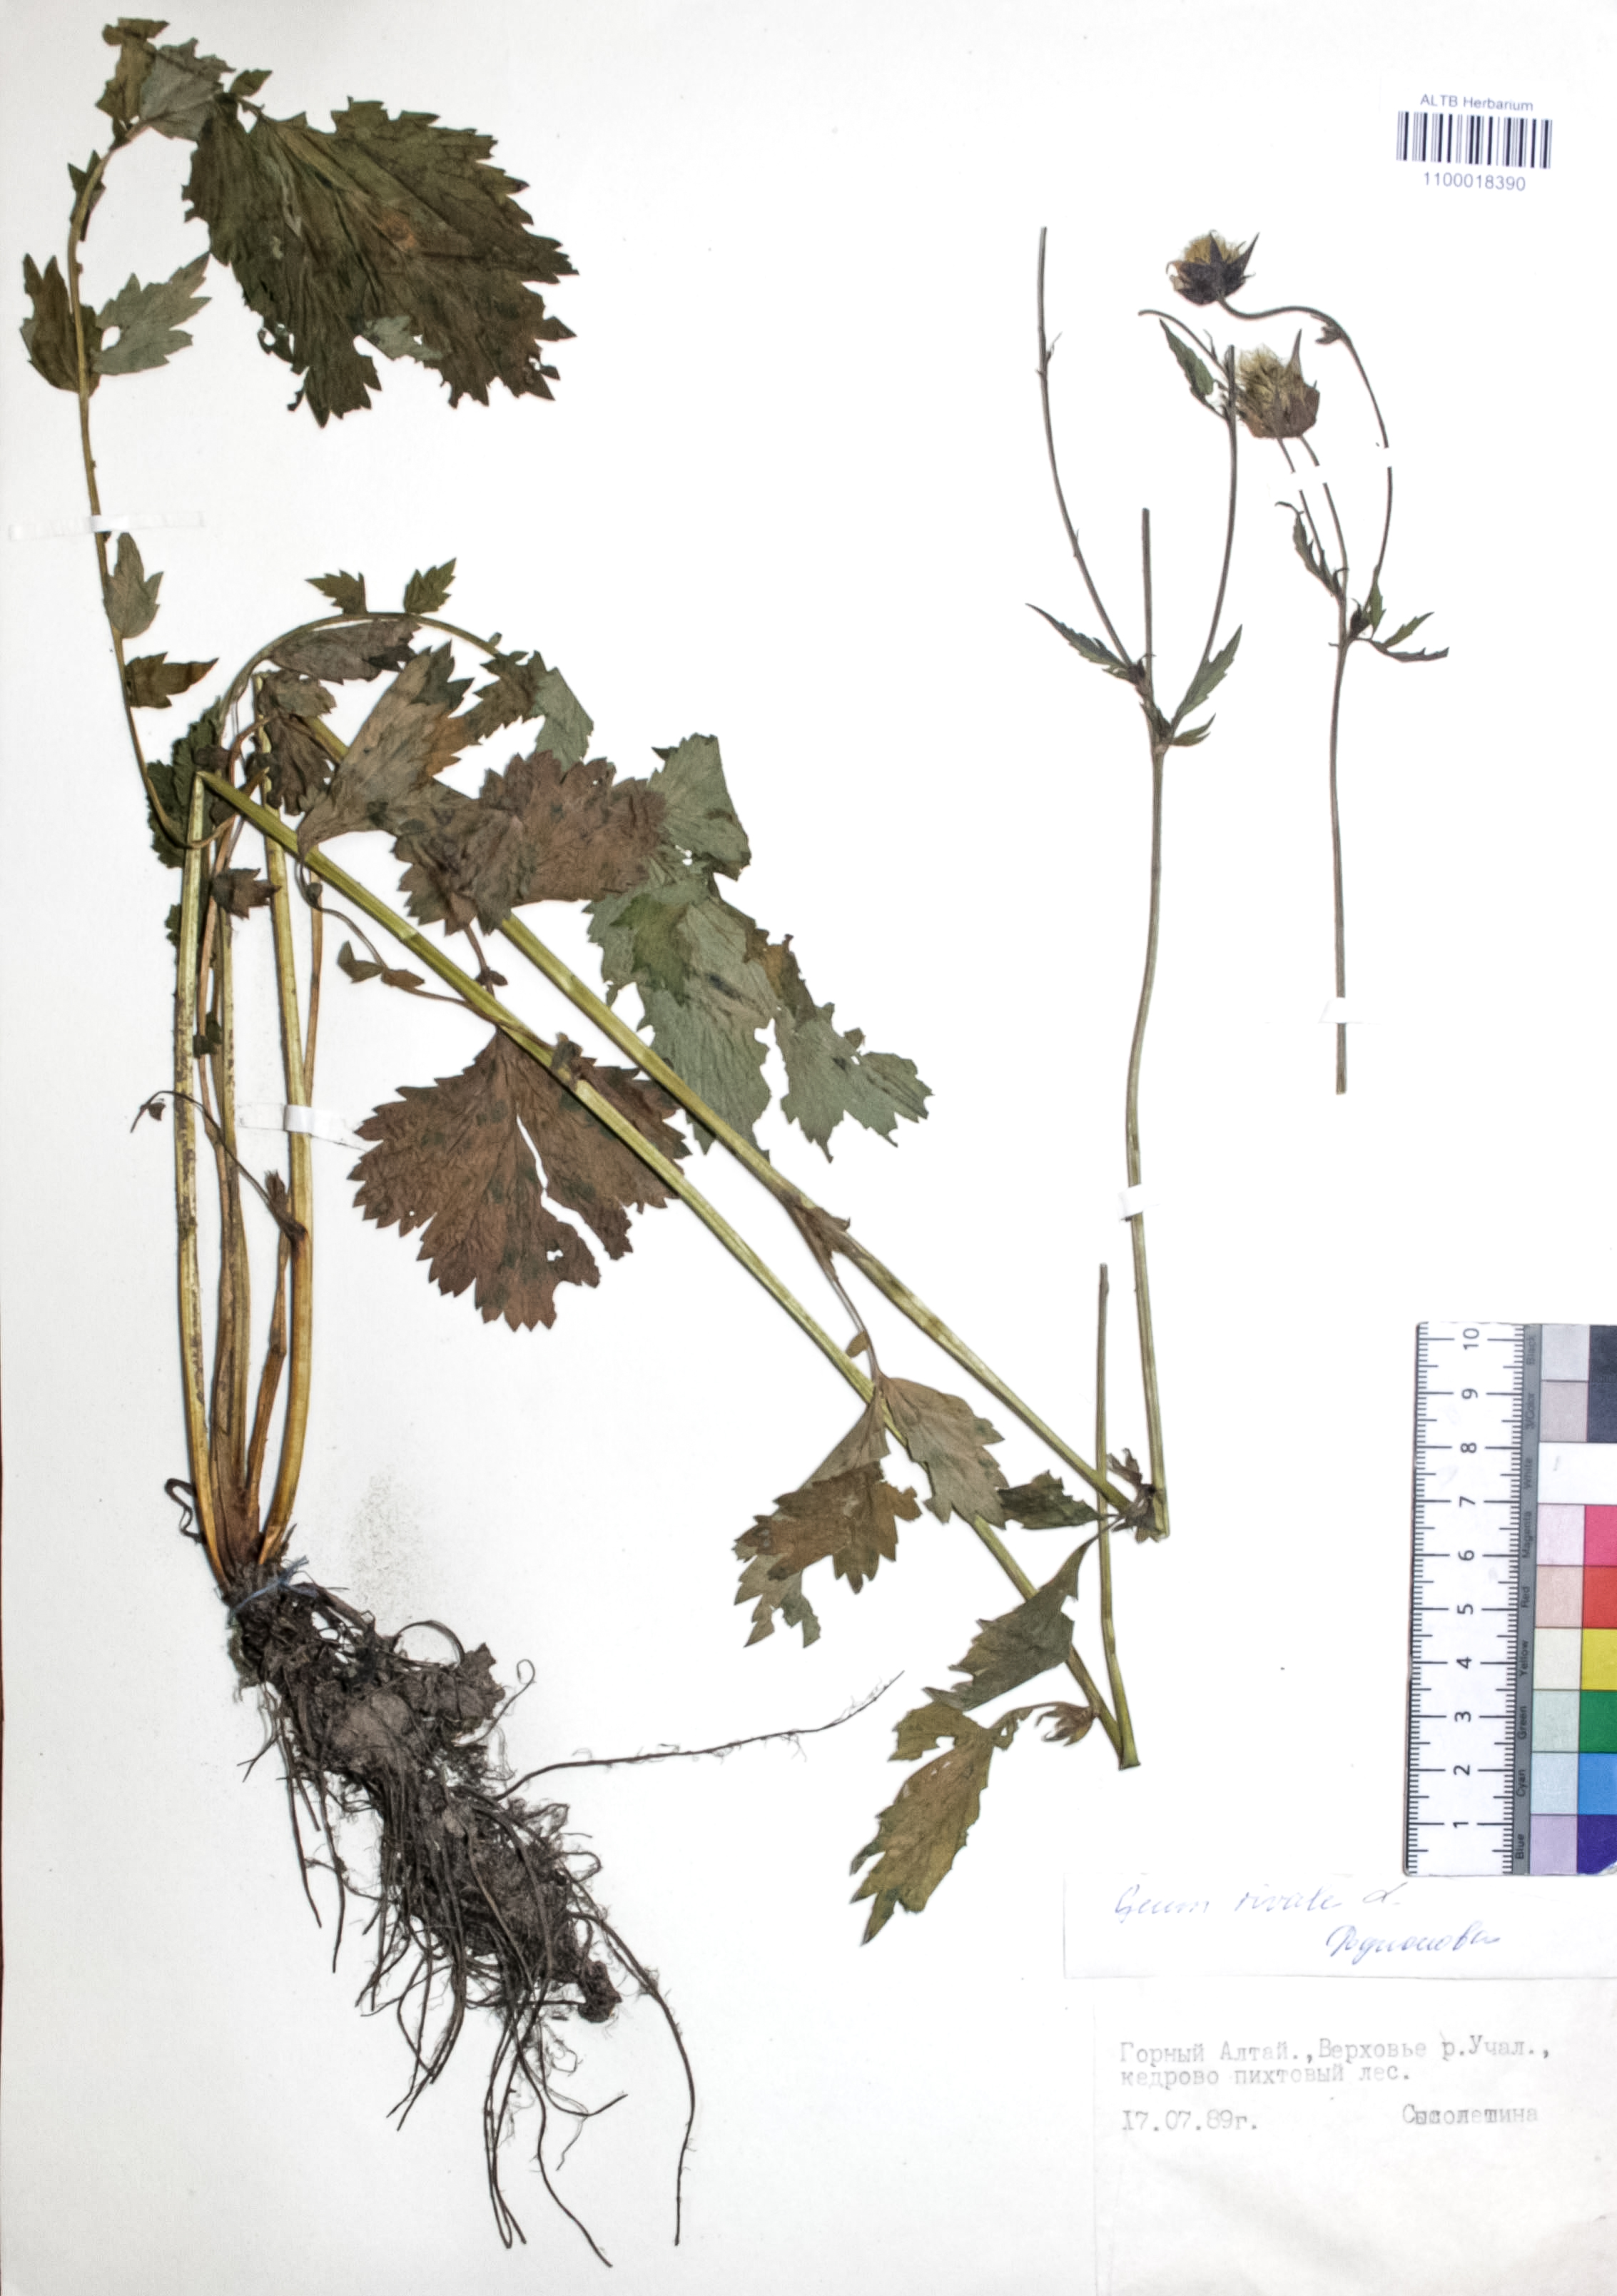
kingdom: Plantae
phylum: Tracheophyta
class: Magnoliopsida
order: Rosales
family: Rosaceae
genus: Geum
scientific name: Geum rivale
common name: Water avens
